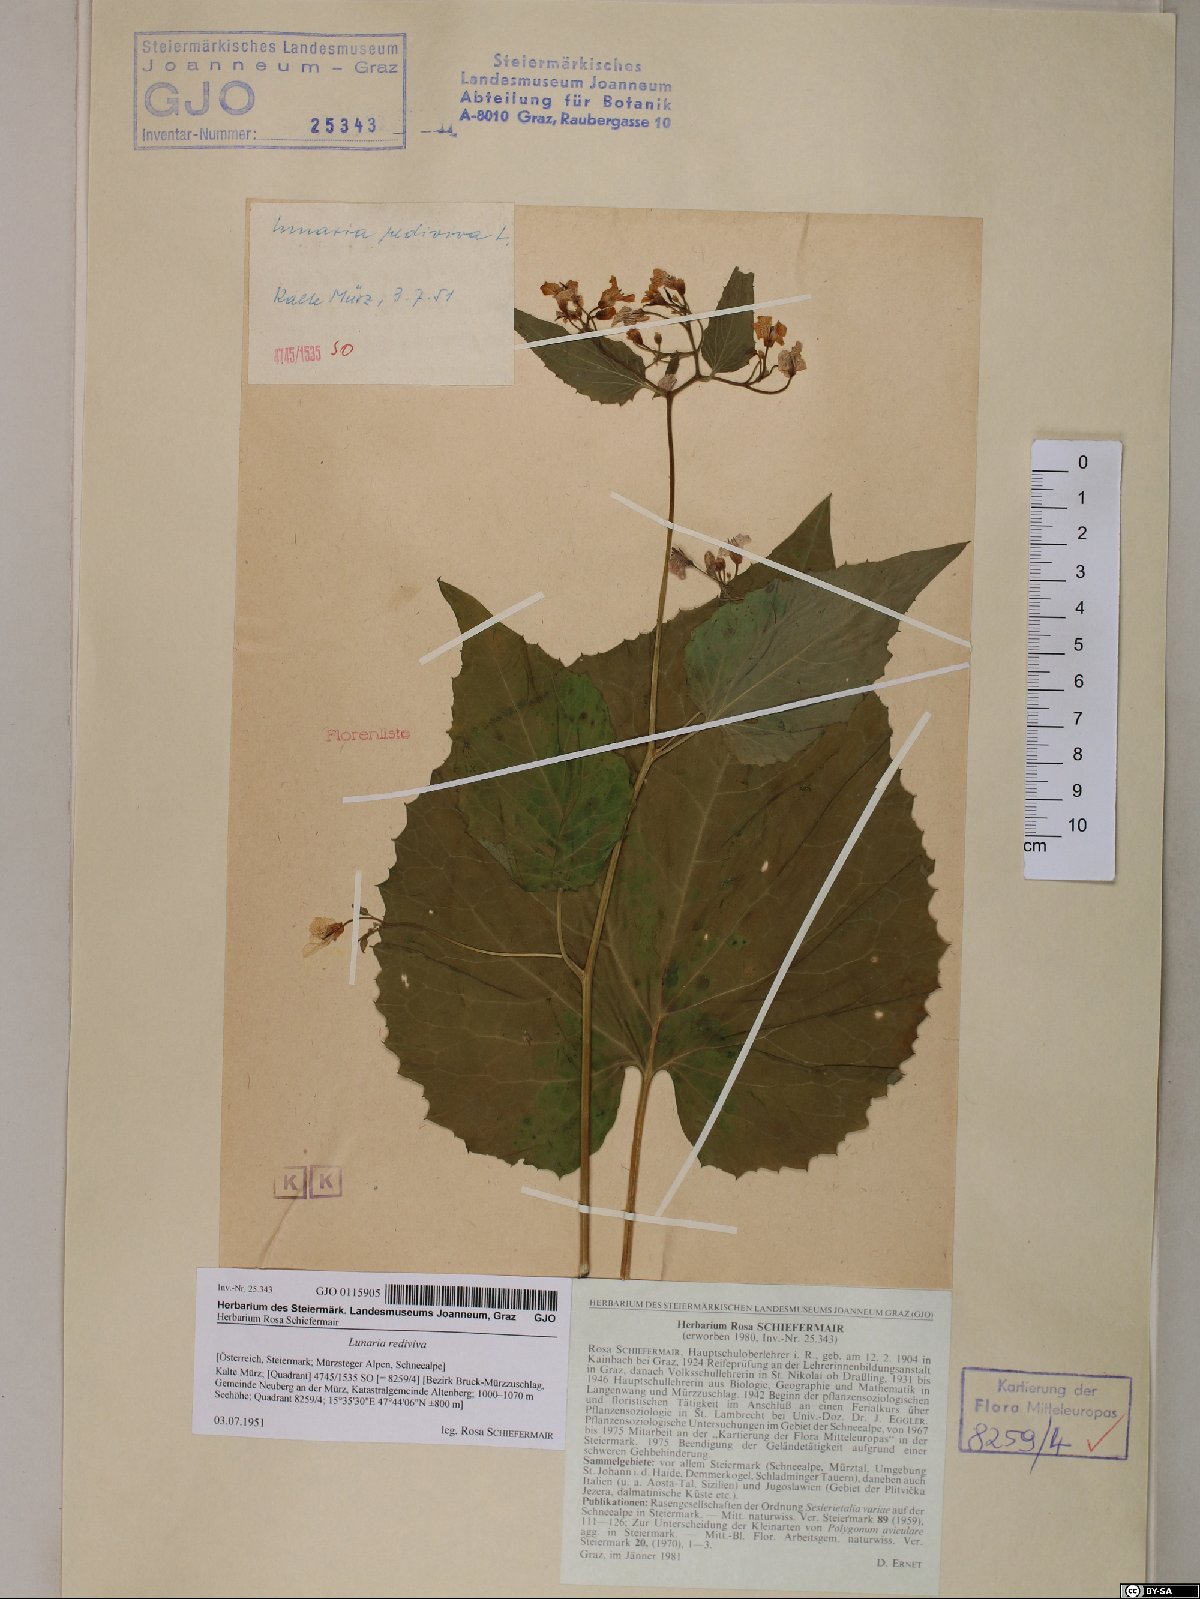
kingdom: Plantae
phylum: Tracheophyta
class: Magnoliopsida
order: Brassicales
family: Brassicaceae
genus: Lunaria
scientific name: Lunaria rediviva
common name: Perennial honesty
